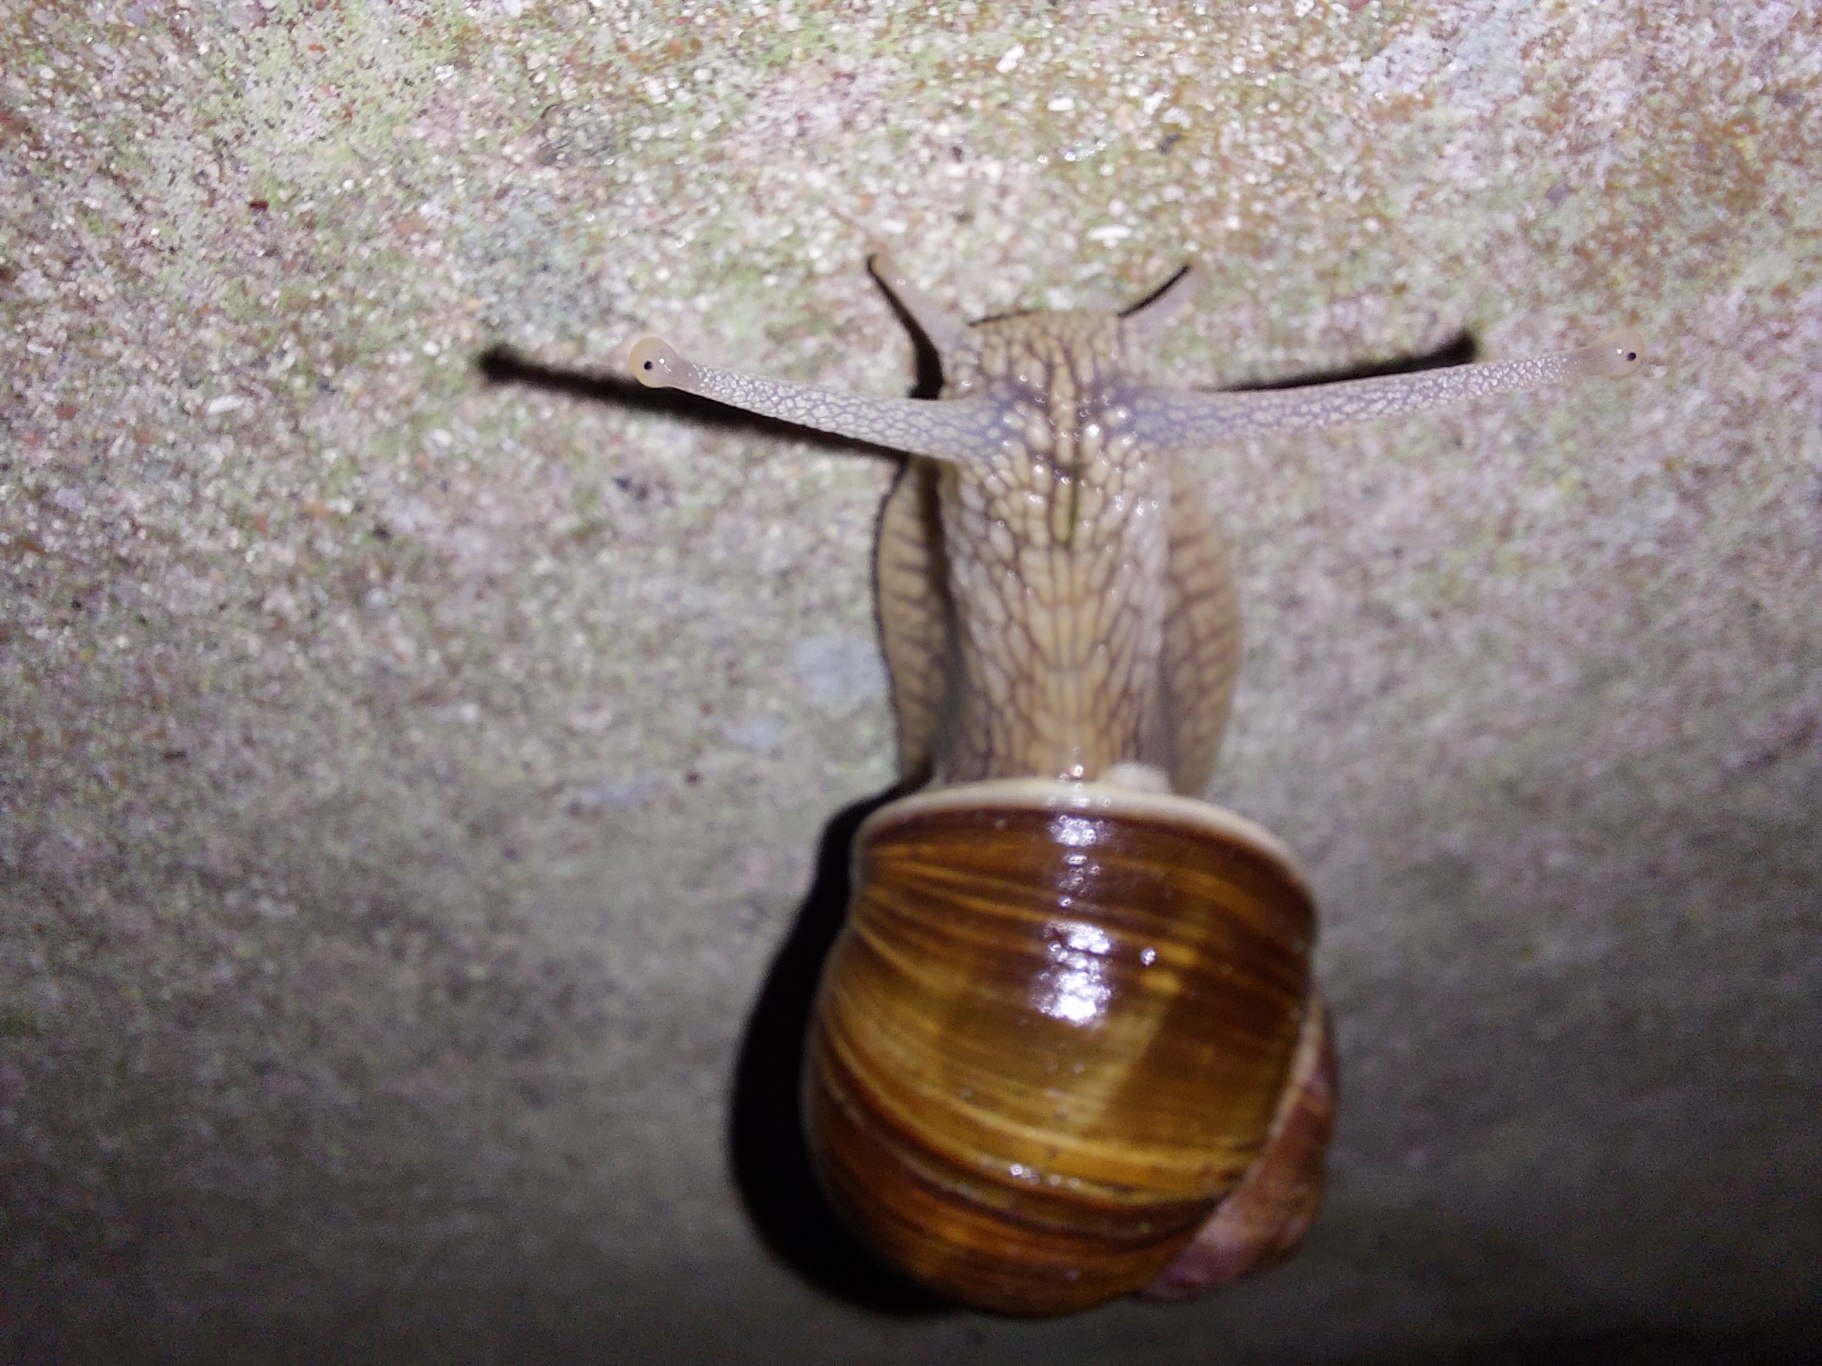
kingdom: Animalia
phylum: Mollusca
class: Gastropoda
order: Stylommatophora
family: Helicidae
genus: Helix
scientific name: Helix pomatia
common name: Vinbjergsnegl
